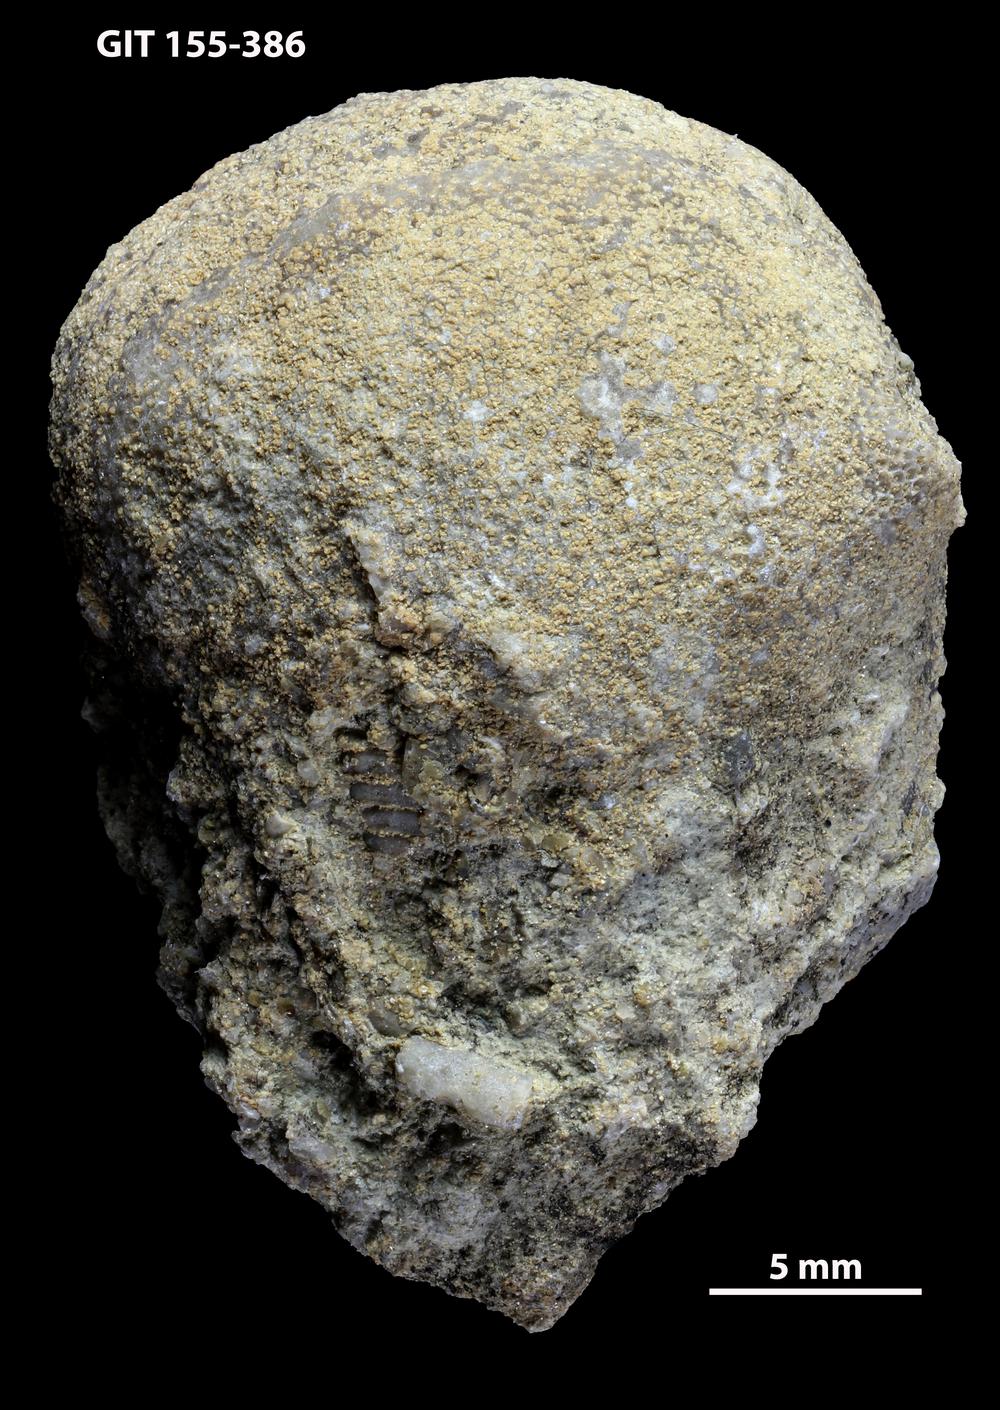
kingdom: Animalia
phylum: Bryozoa
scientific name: Bryozoa
